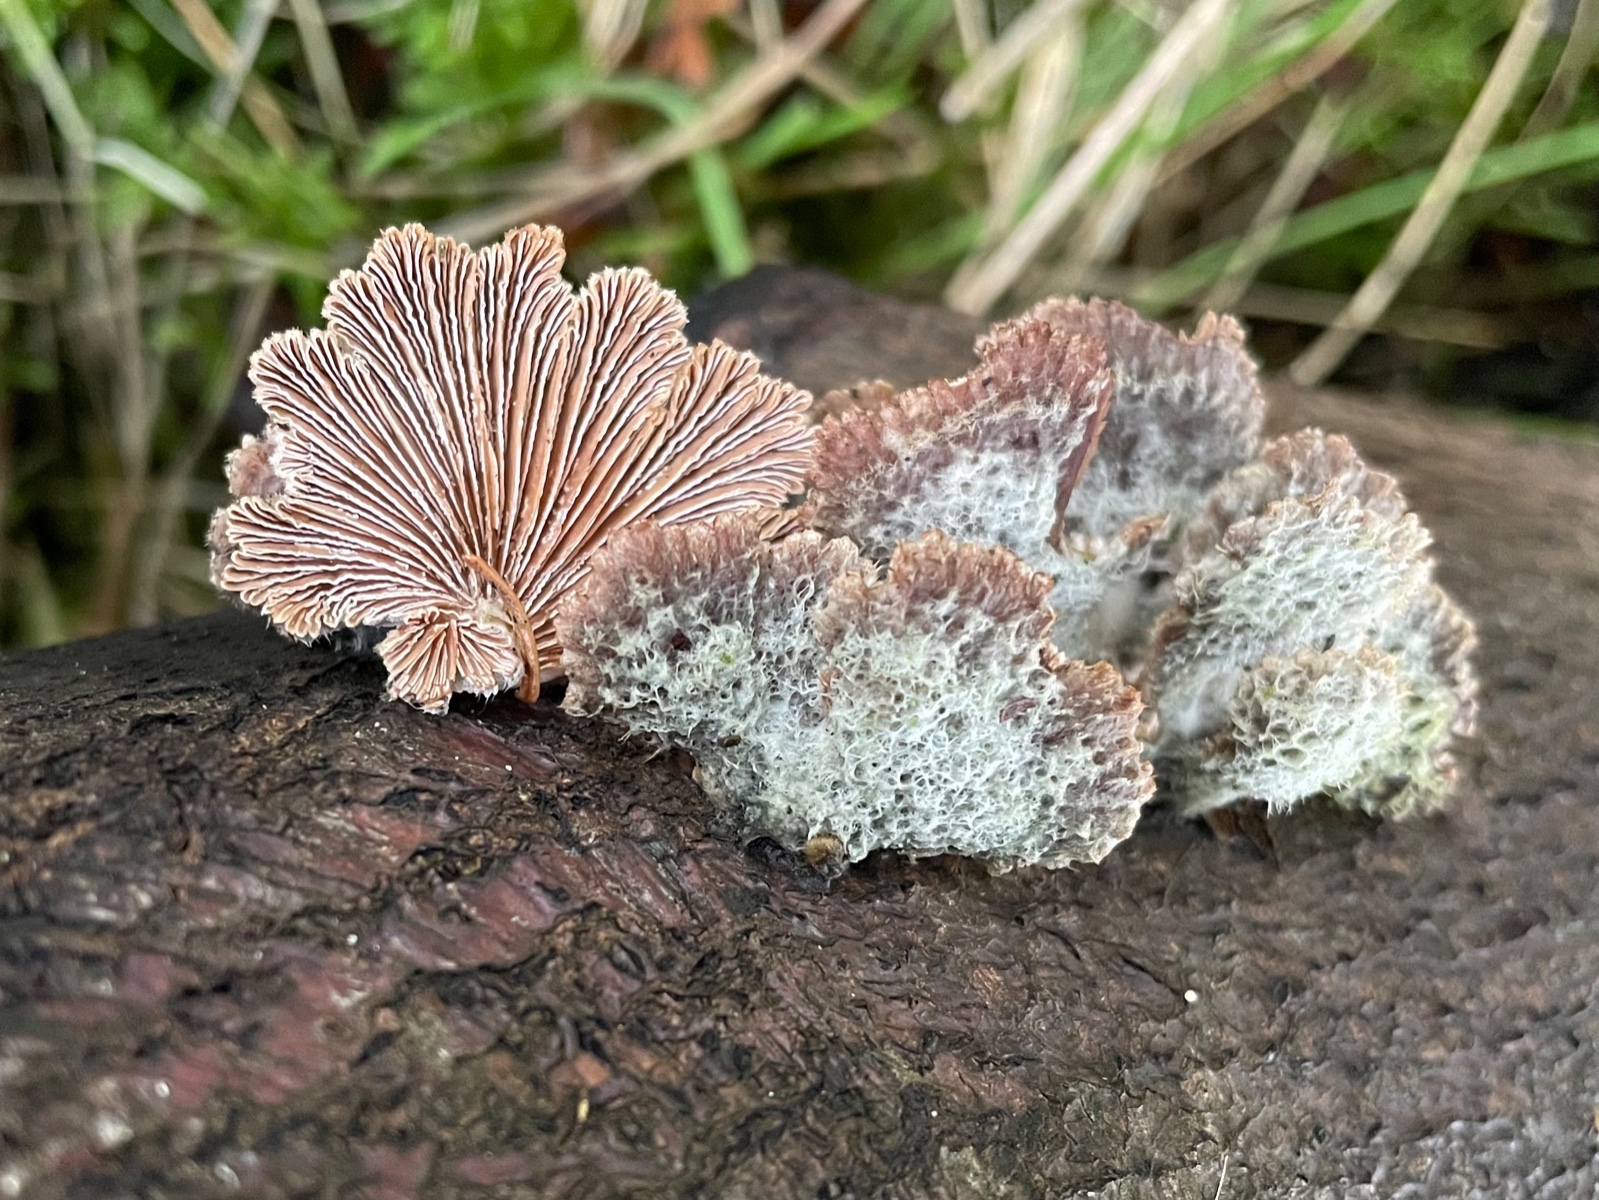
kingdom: Fungi
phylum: Basidiomycota
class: Agaricomycetes
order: Agaricales
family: Schizophyllaceae
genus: Schizophyllum
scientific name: Schizophyllum commune
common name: kløvblad
